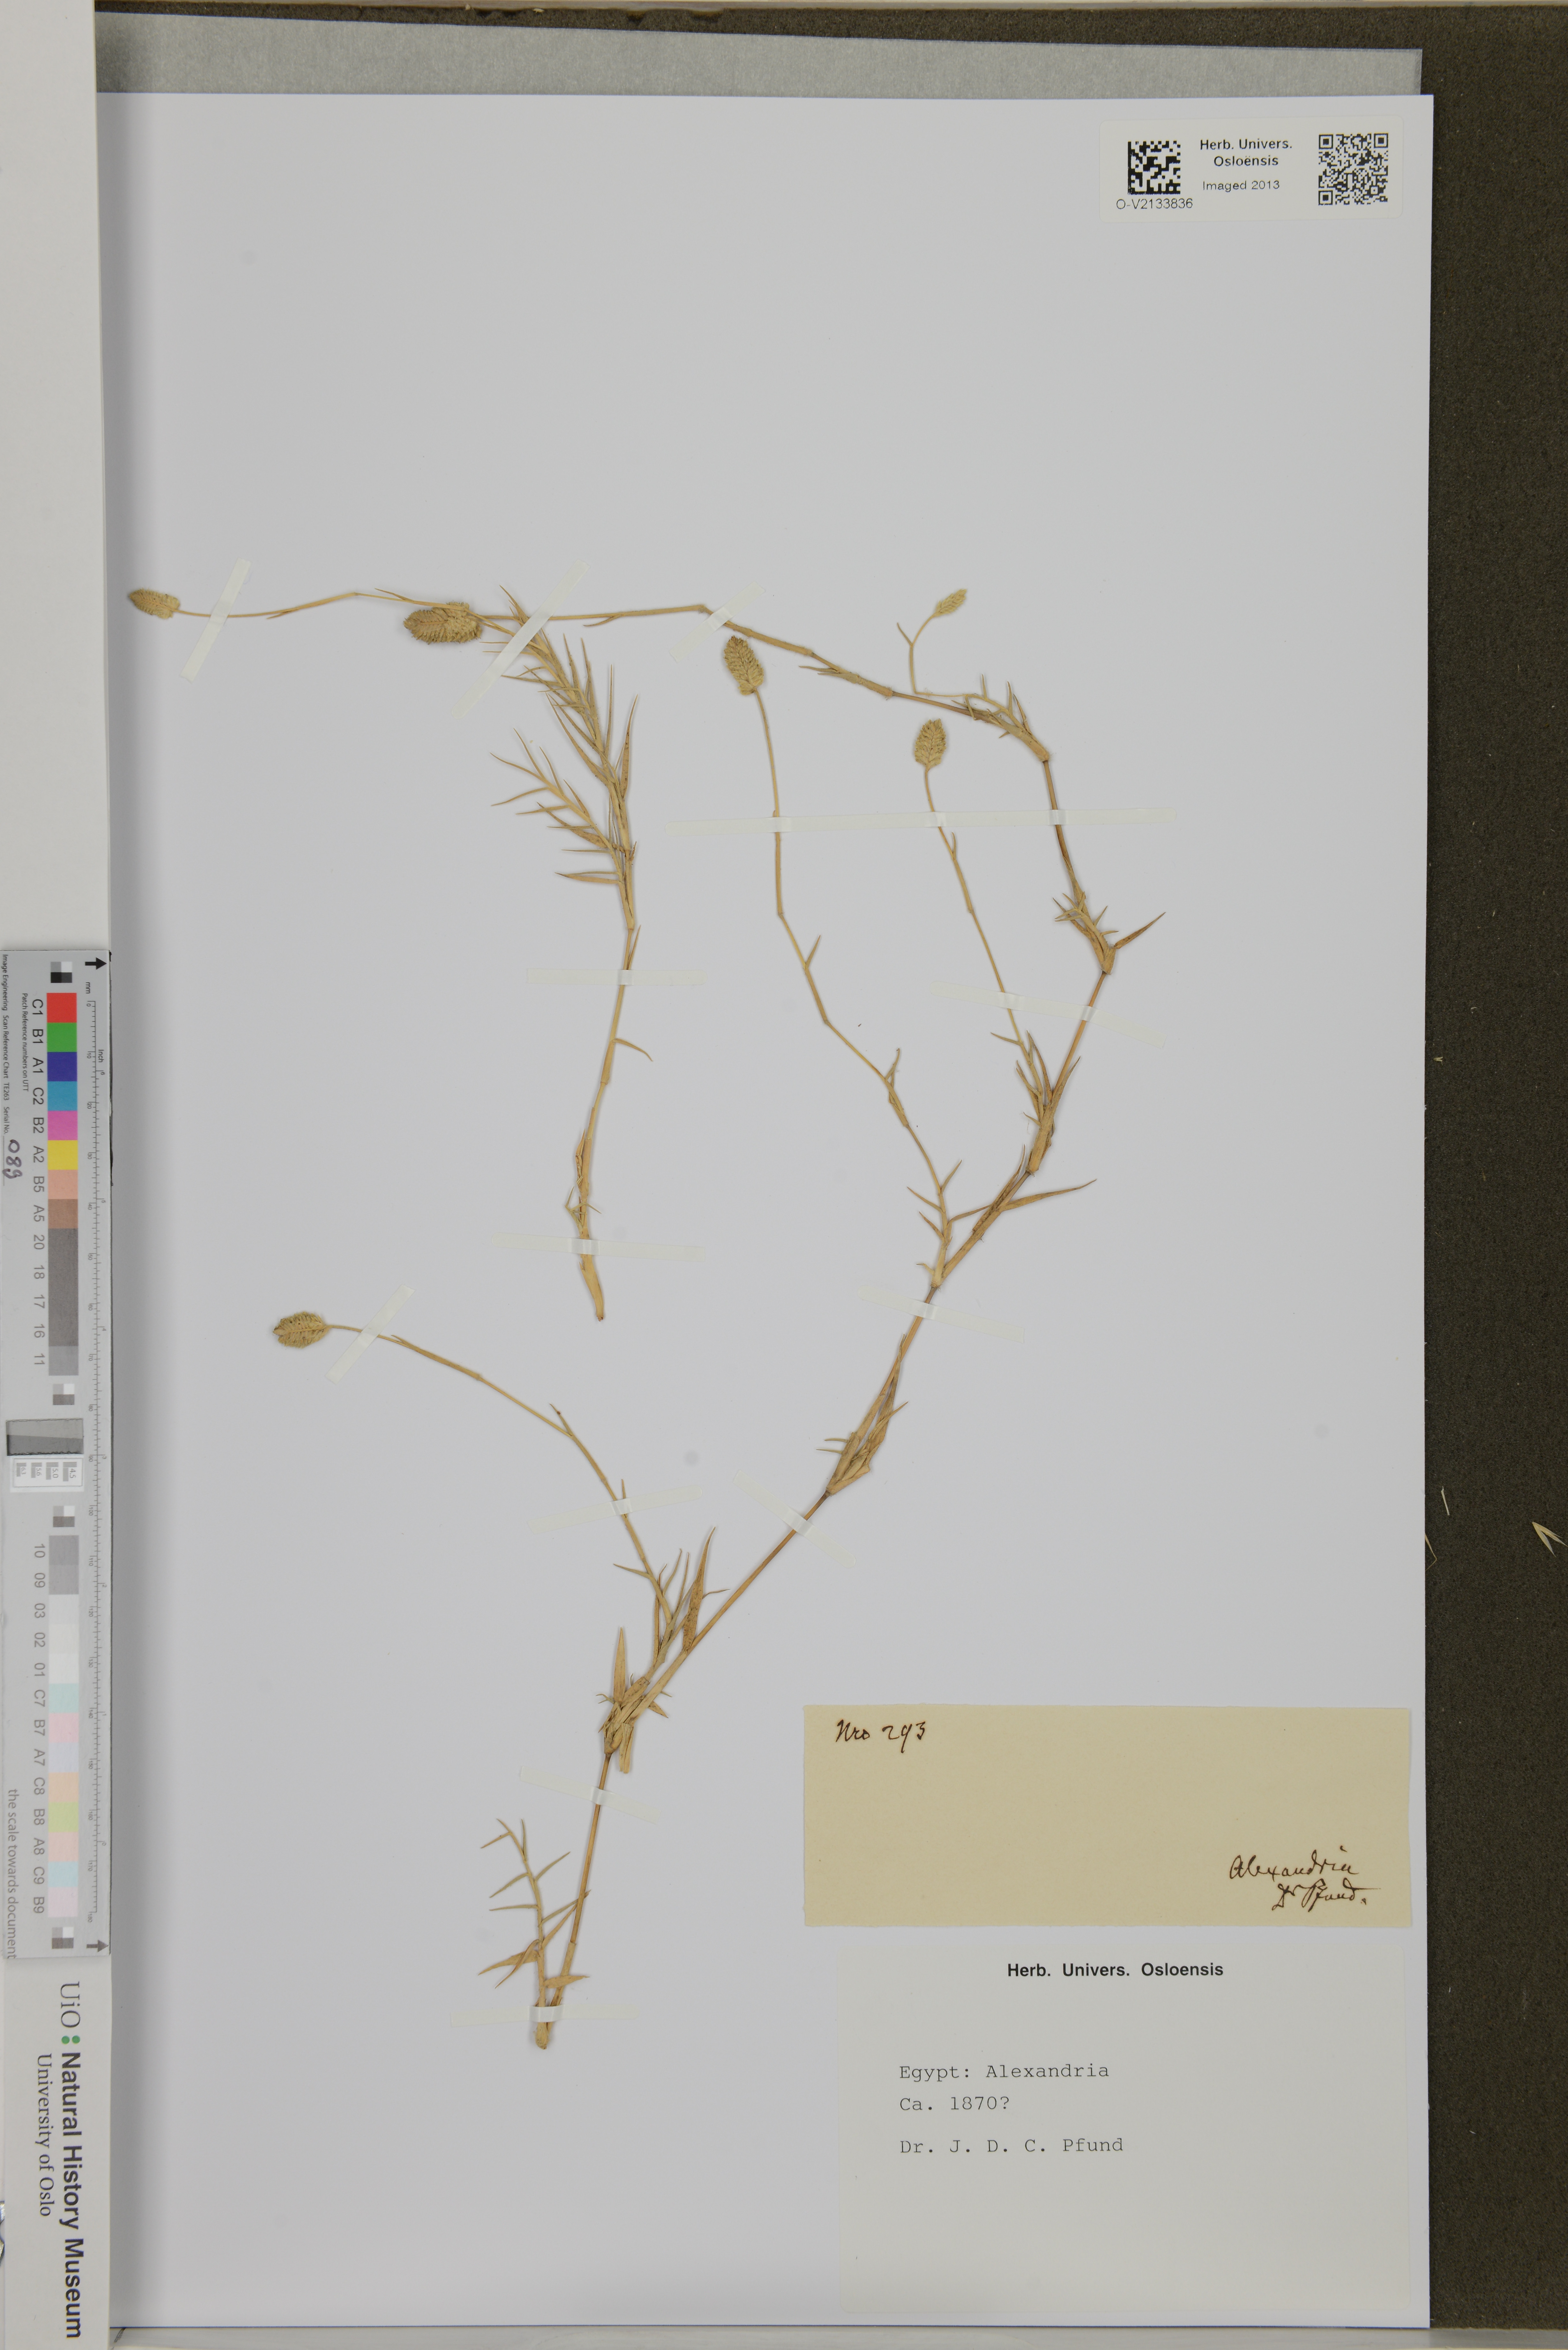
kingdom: Plantae
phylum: Tracheophyta
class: Liliopsida
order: Poales
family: Poaceae
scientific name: Poaceae
